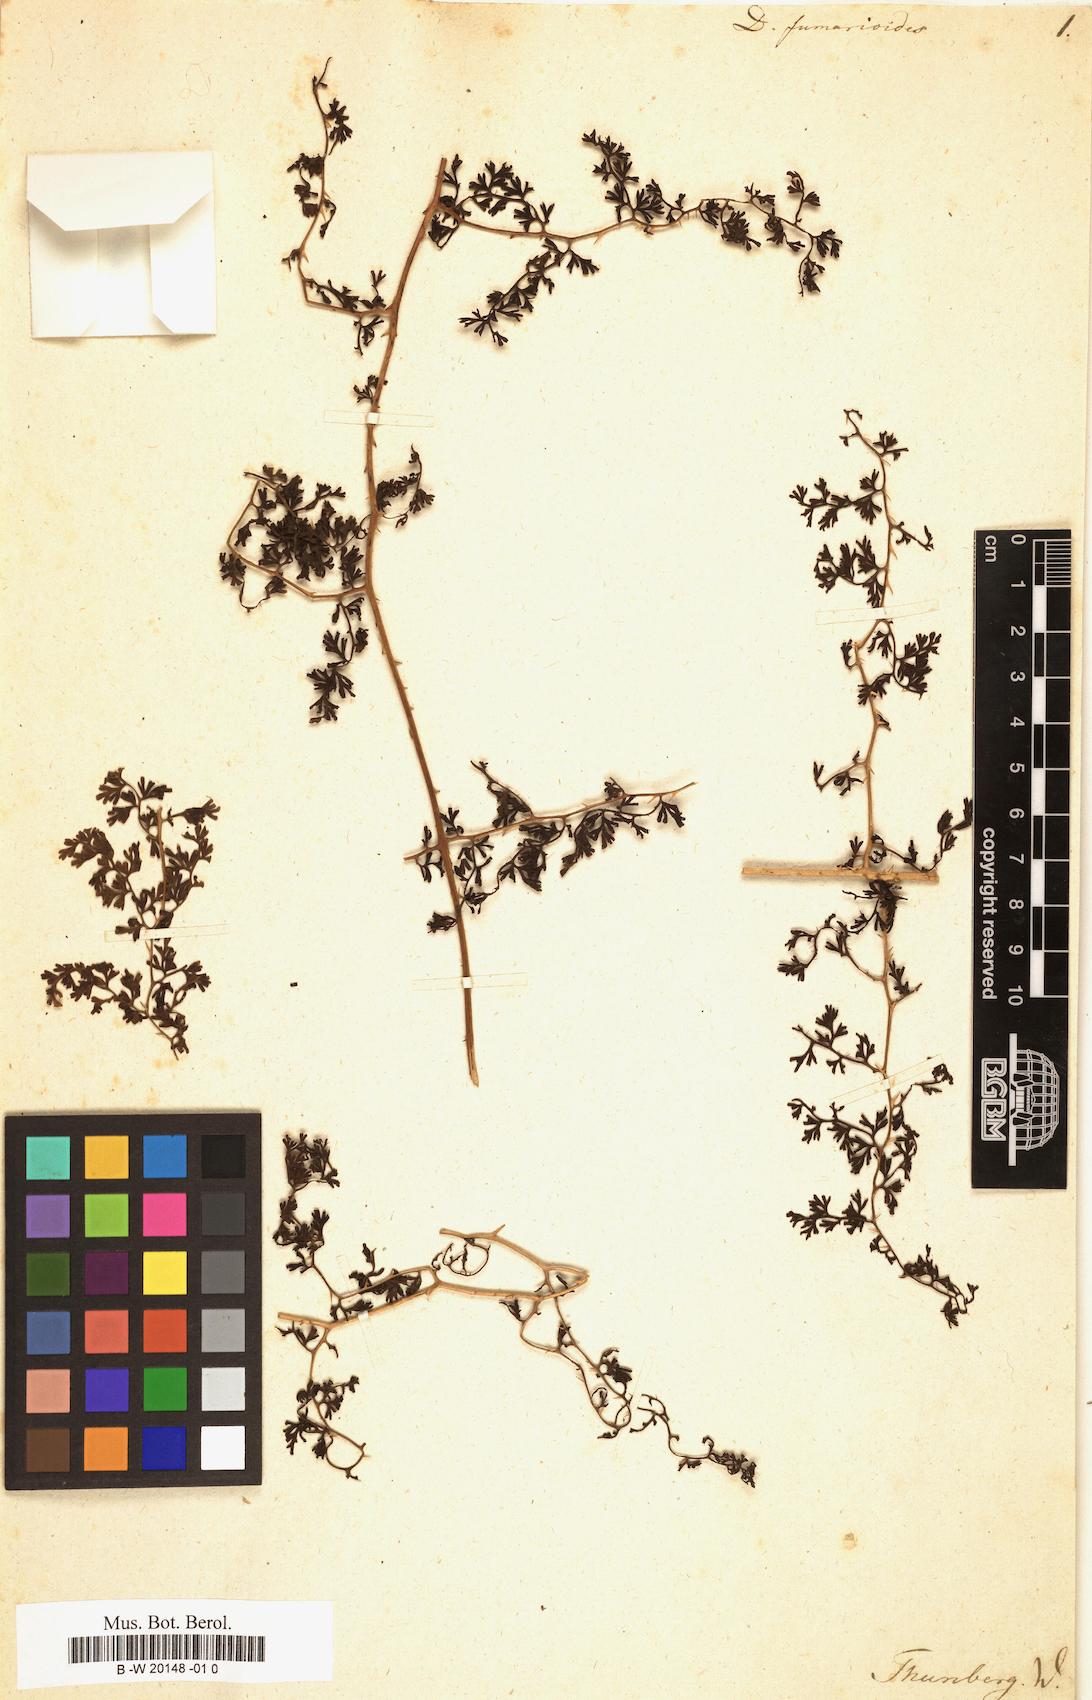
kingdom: Plantae
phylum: Tracheophyta
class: Polypodiopsida
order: Polypodiales
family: Lindsaeaceae
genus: Odontosoria
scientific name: Odontosoria fumarioides
